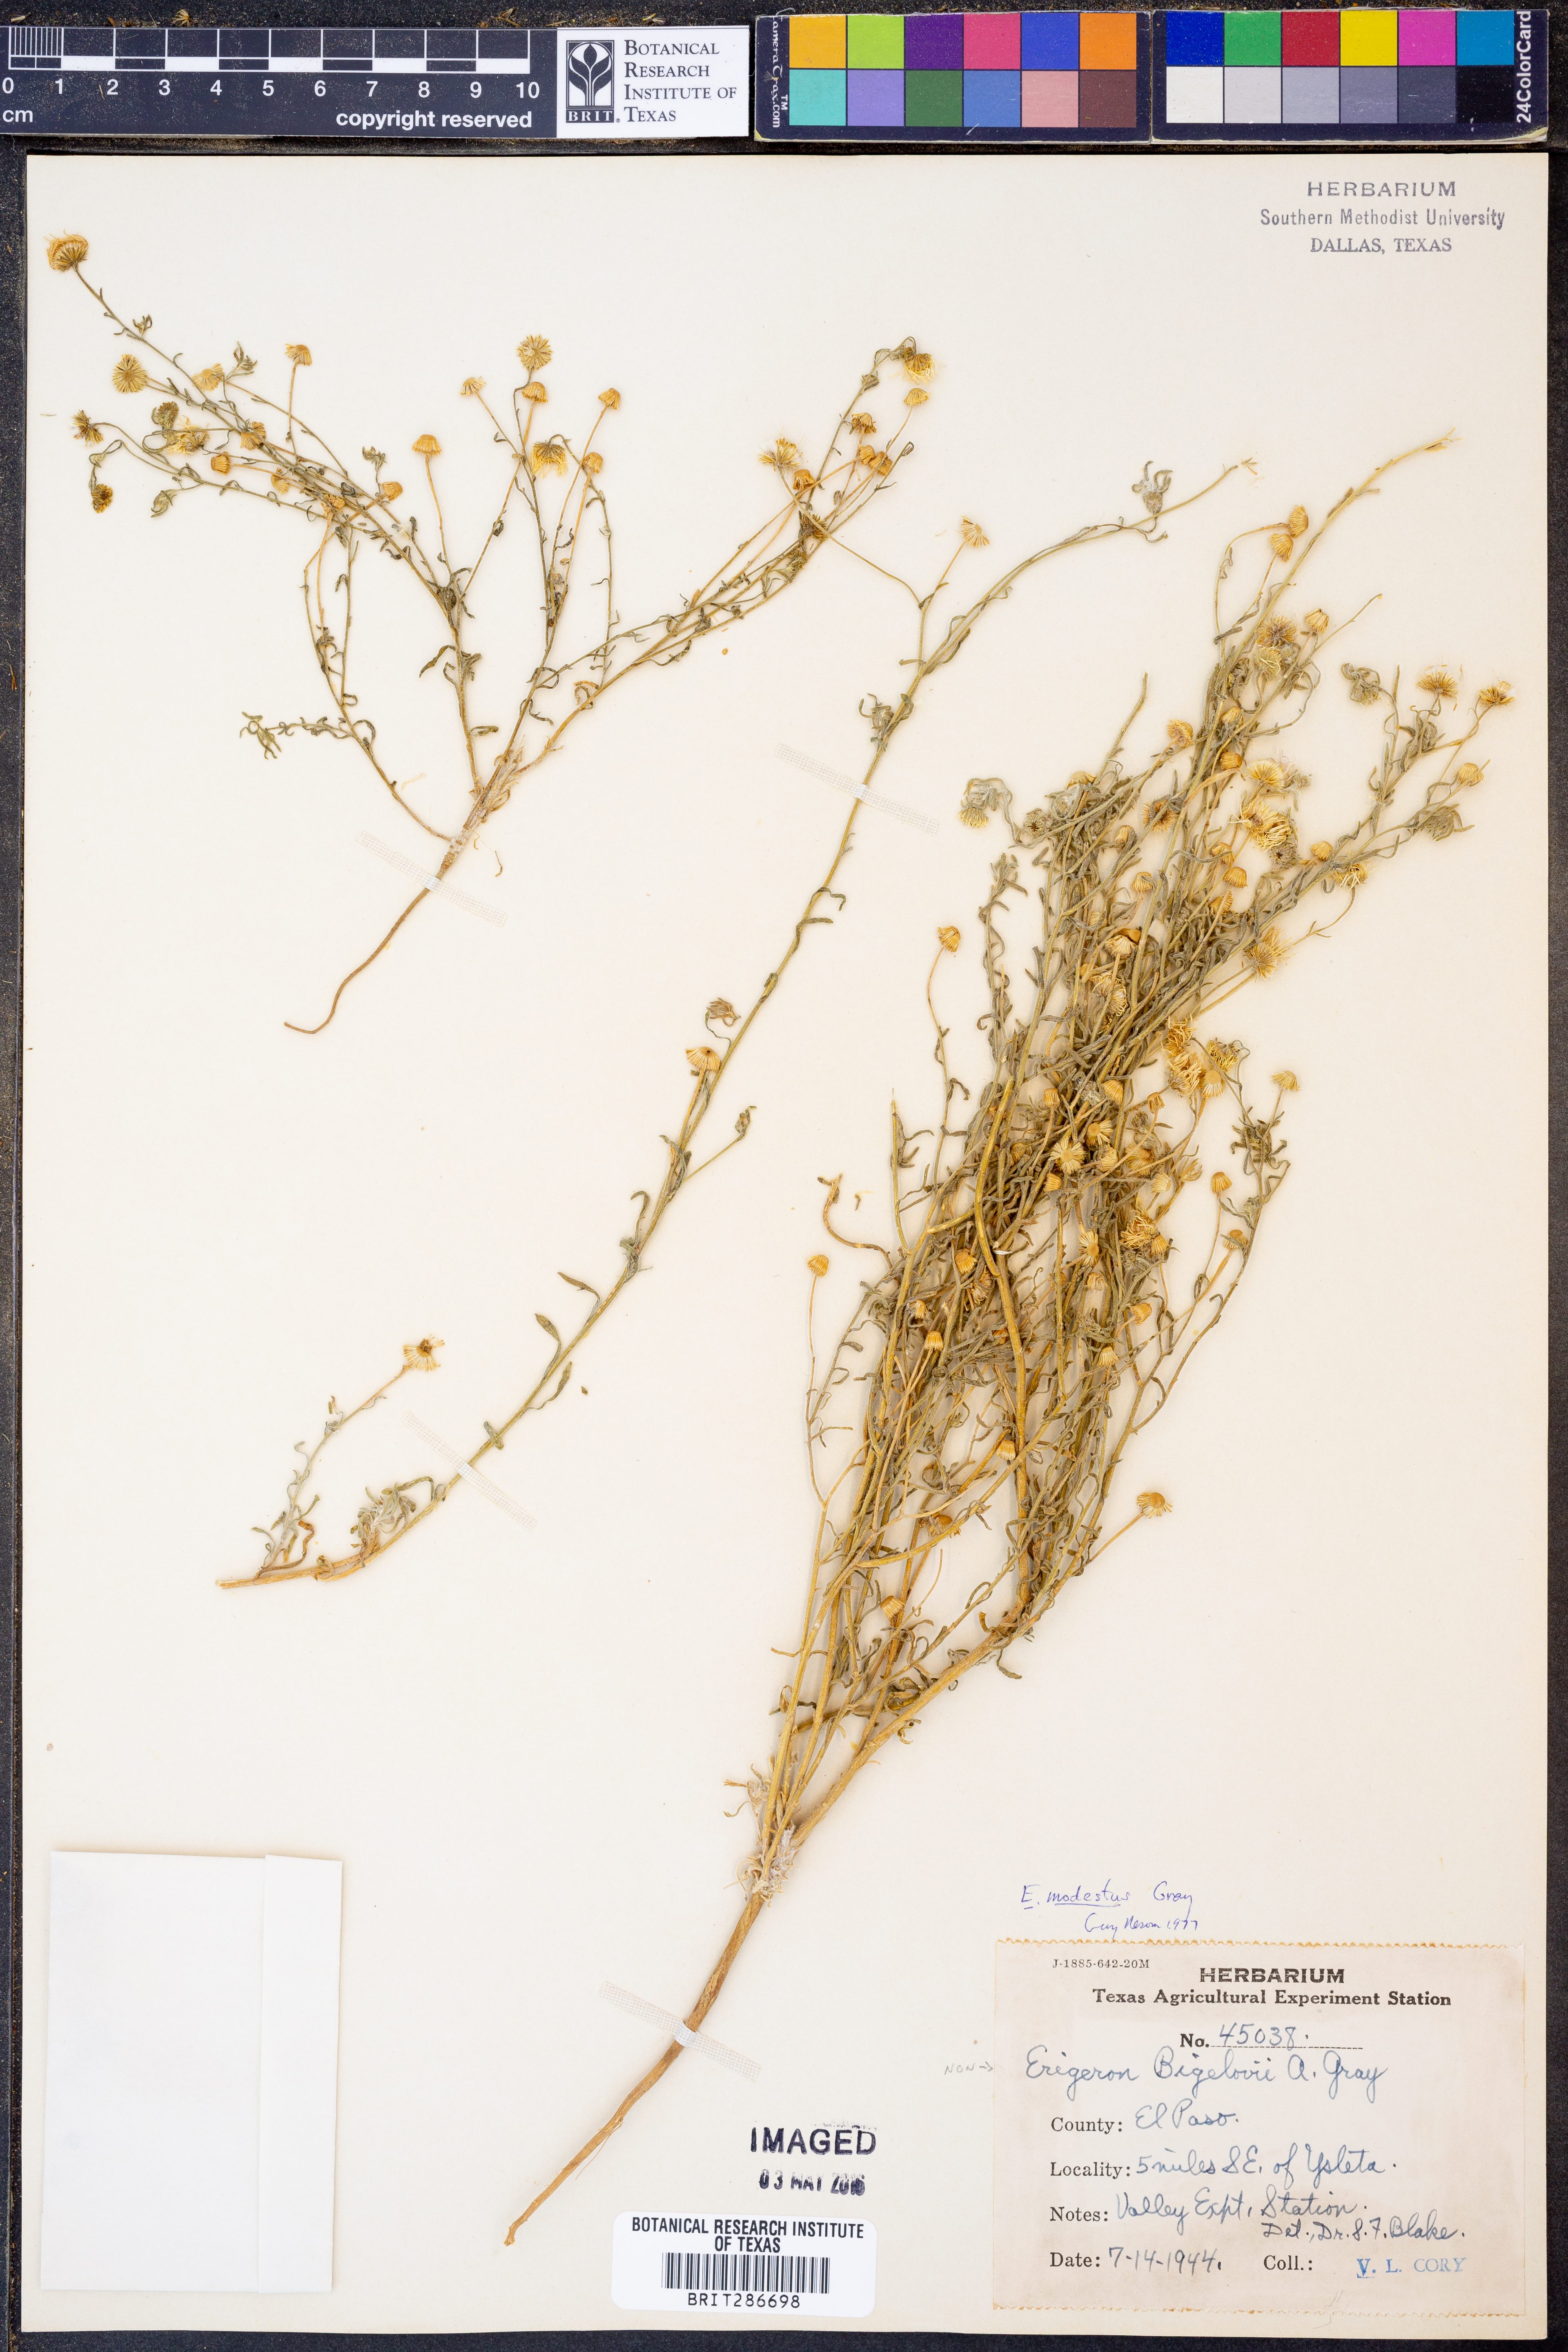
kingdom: Plantae
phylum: Tracheophyta
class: Magnoliopsida
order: Asterales
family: Asteraceae
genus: Erigeron
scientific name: Erigeron modestus
